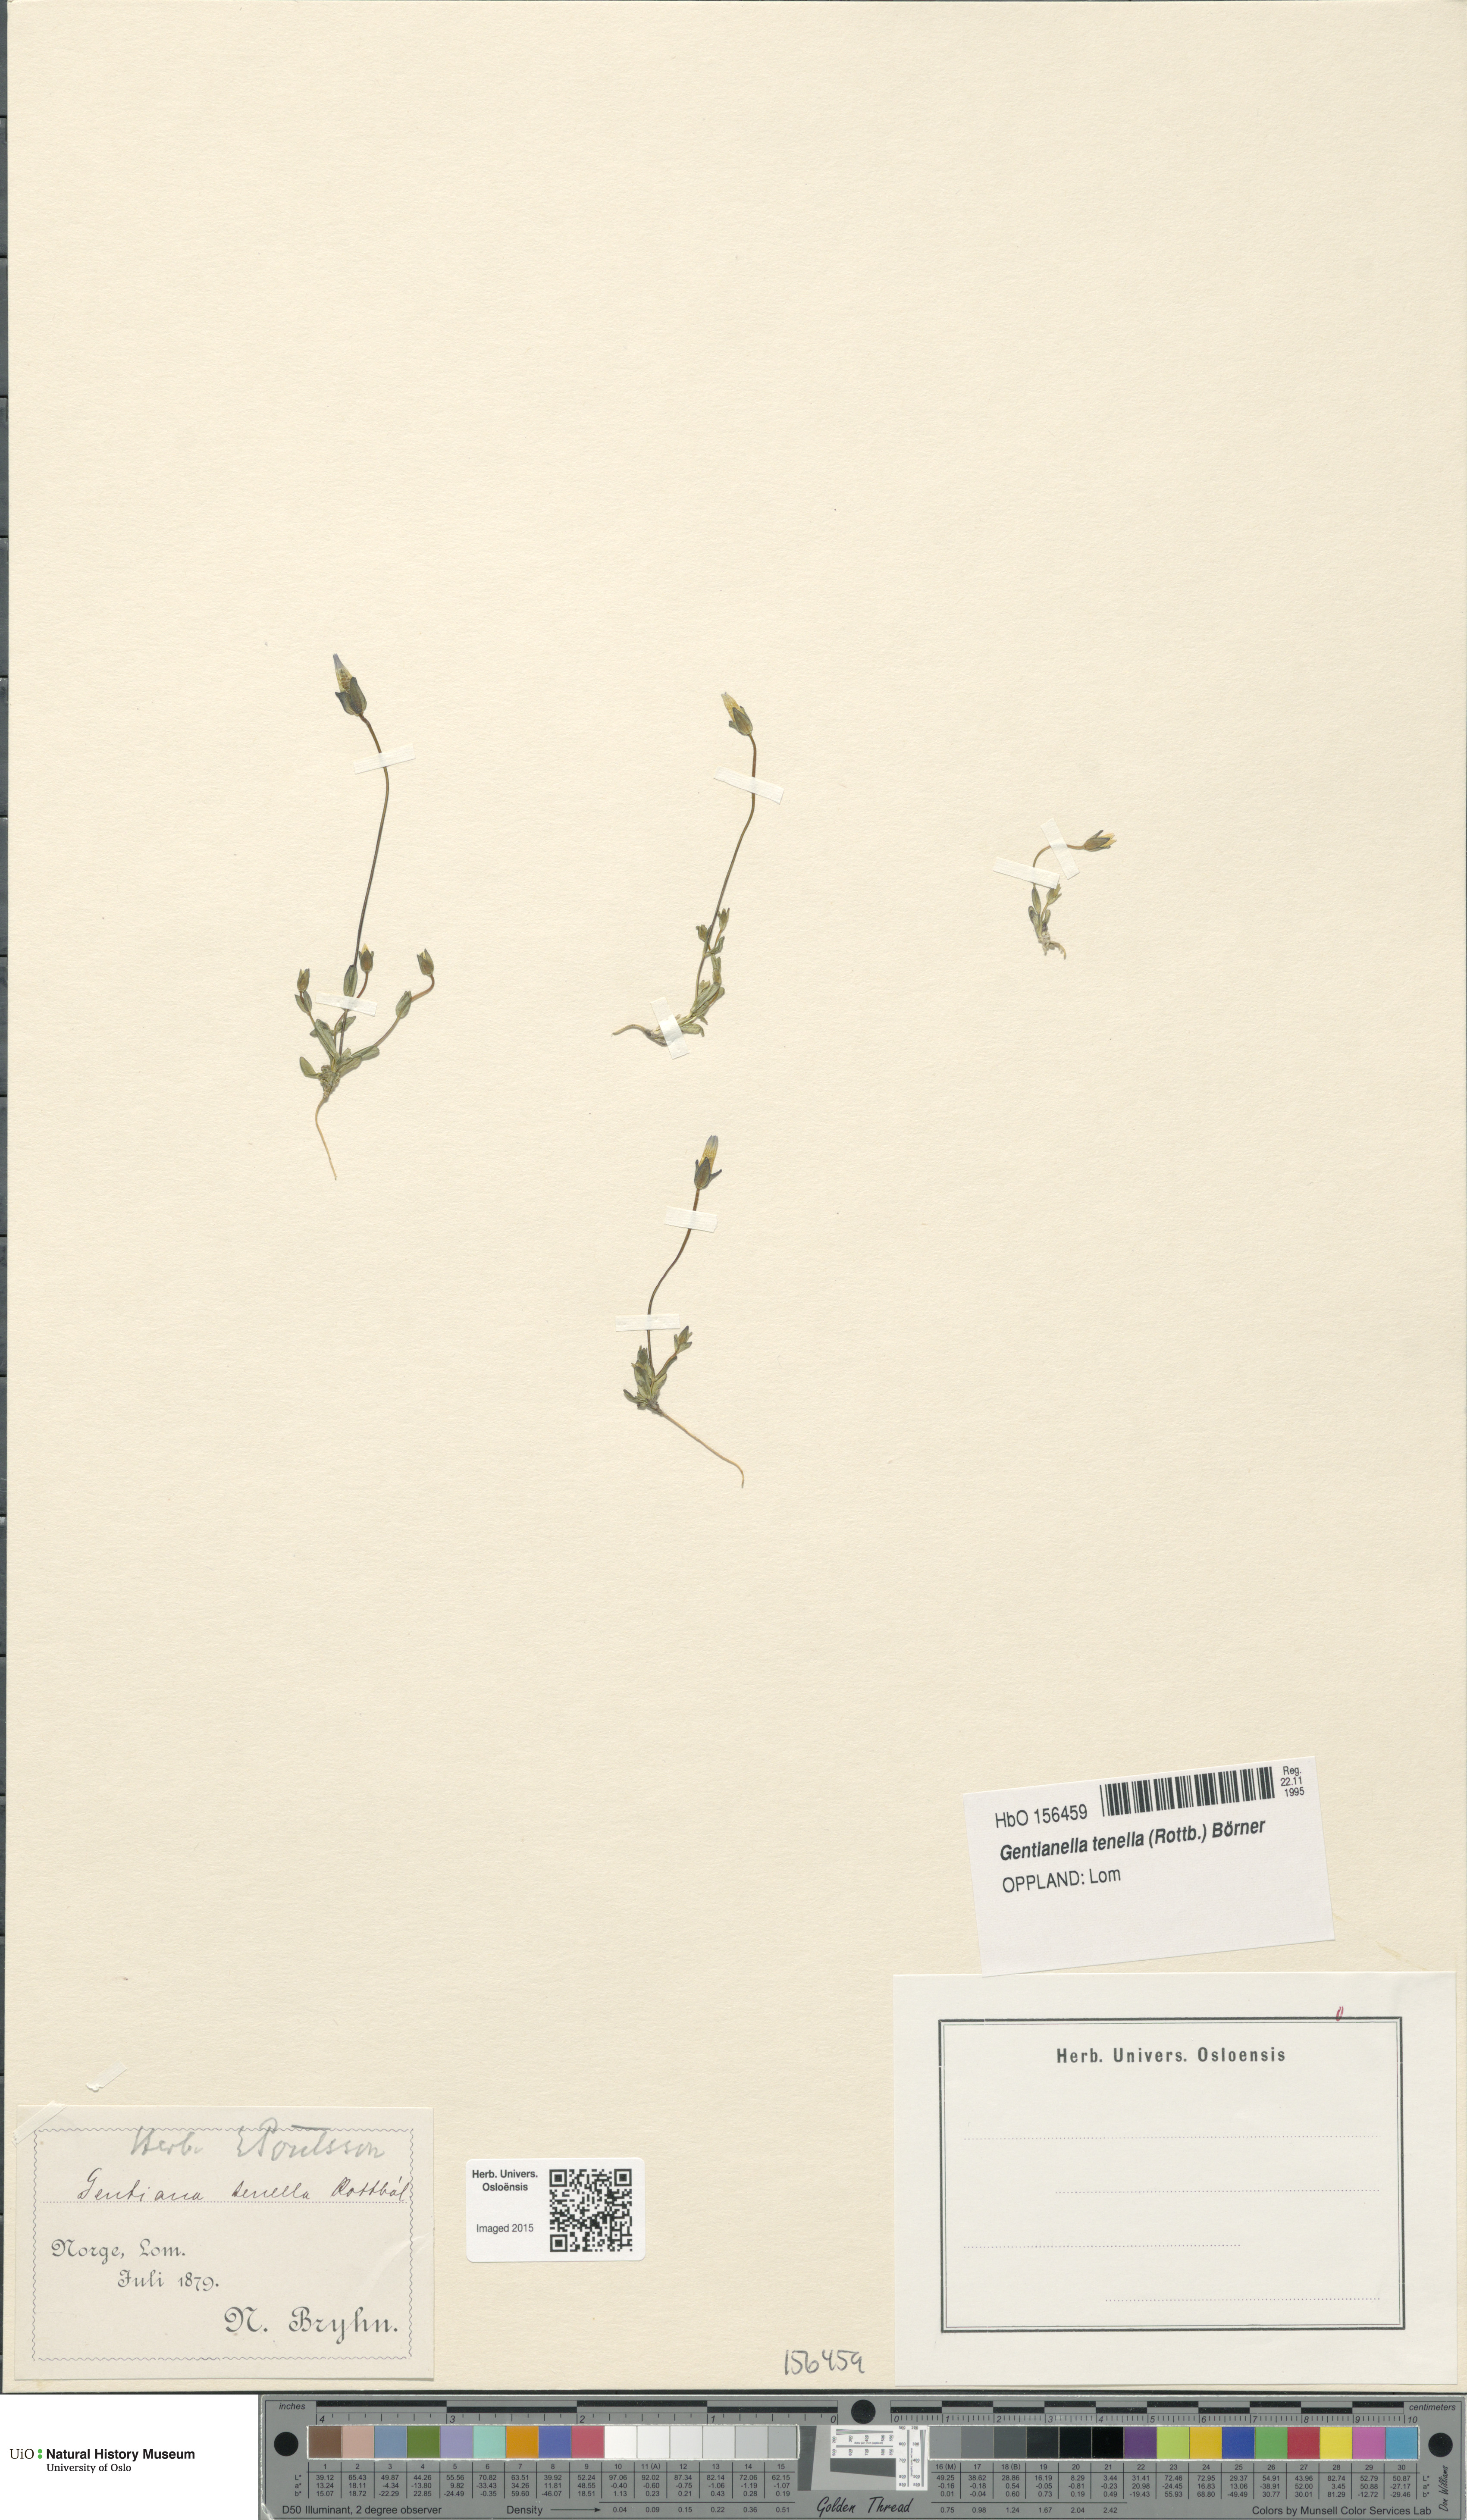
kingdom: Plantae
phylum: Tracheophyta
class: Magnoliopsida
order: Gentianales
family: Gentianaceae
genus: Comastoma
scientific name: Comastoma tenellum
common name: Dane's dwarf gentian
